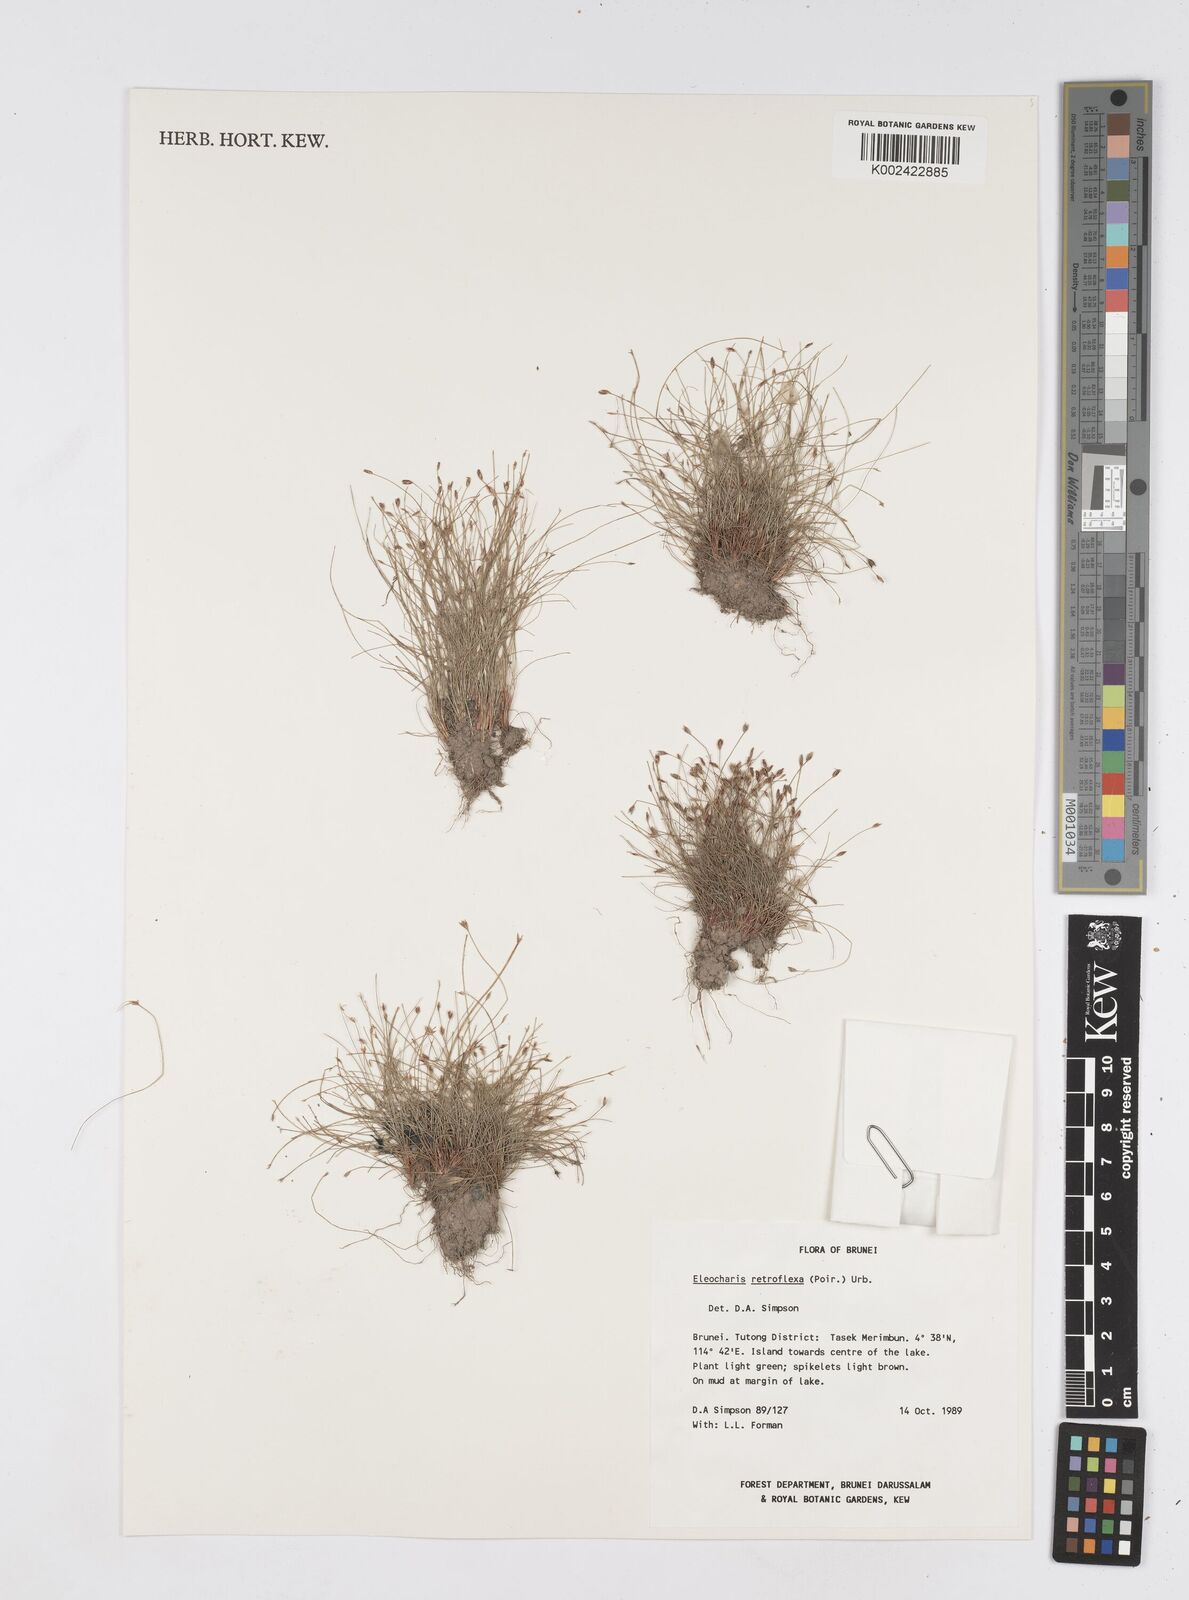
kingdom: Plantae
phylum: Tracheophyta
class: Liliopsida
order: Poales
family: Cyperaceae
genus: Eleocharis
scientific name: Eleocharis retroflexa
